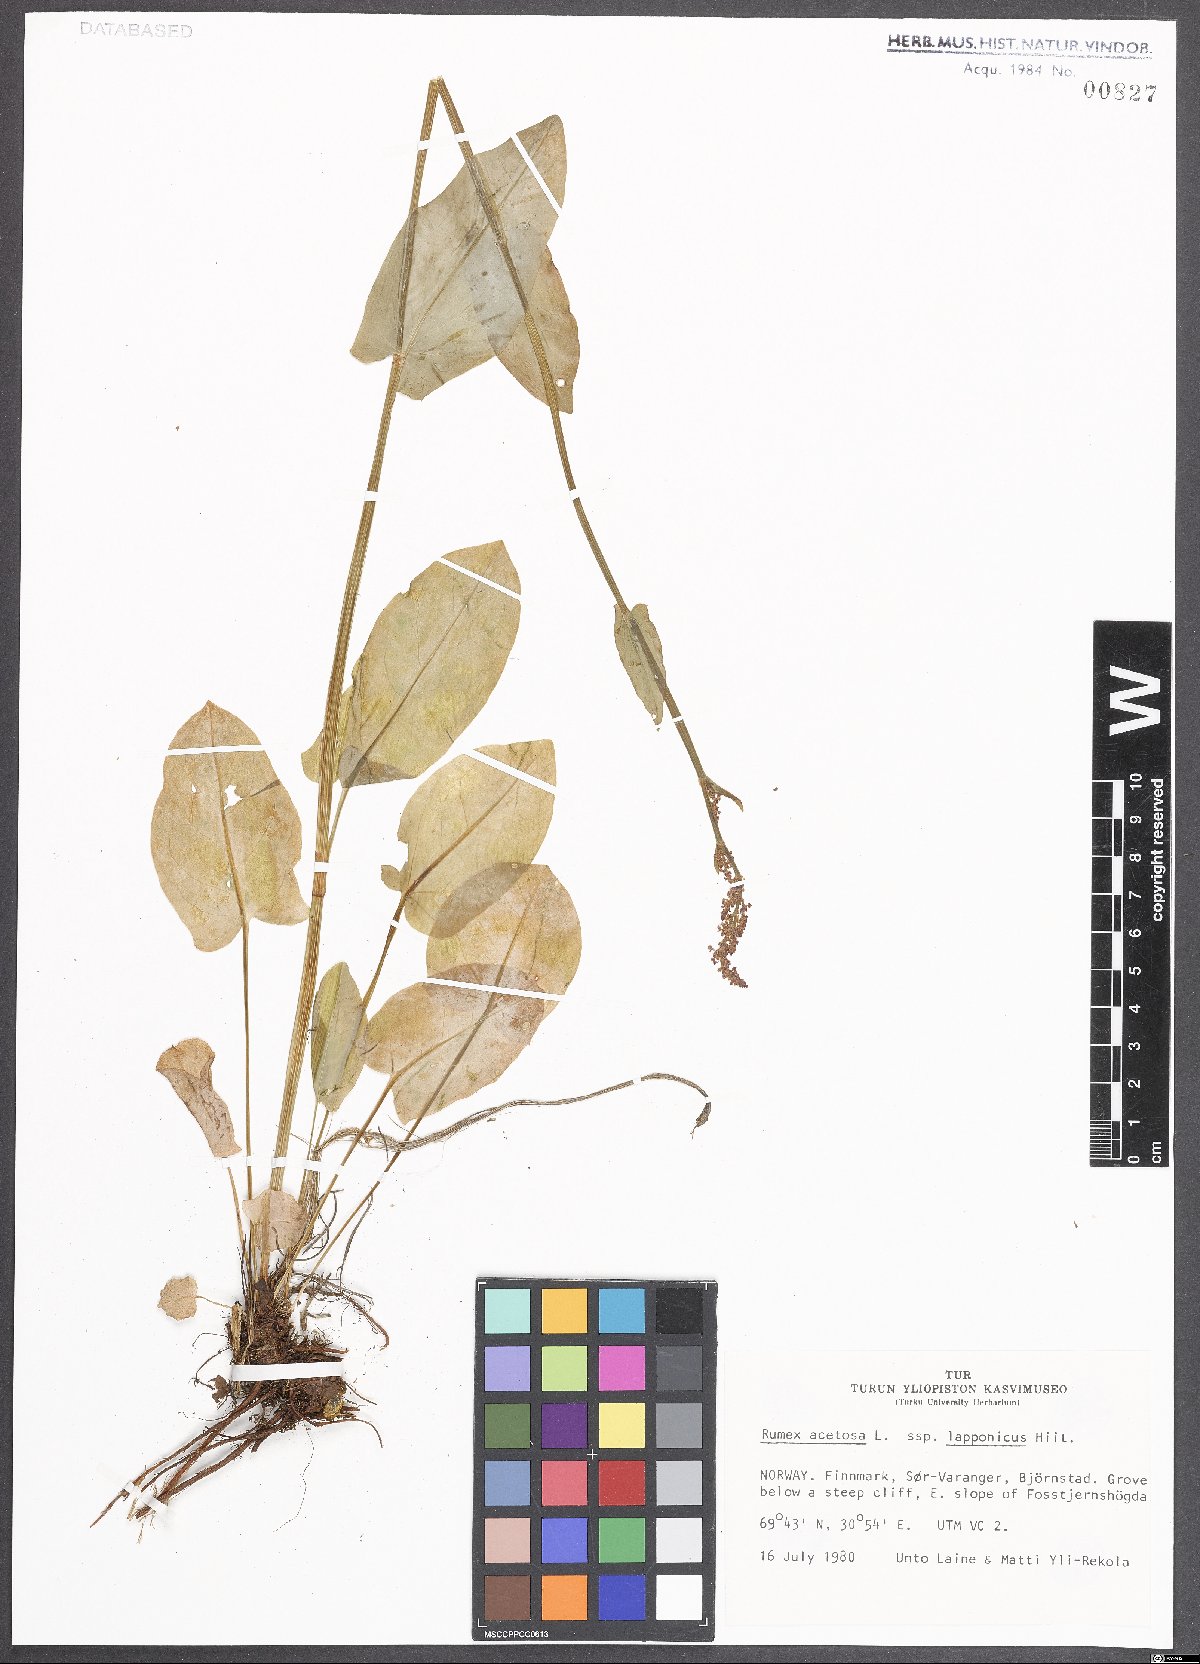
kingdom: Plantae
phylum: Tracheophyta
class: Magnoliopsida
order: Caryophyllales
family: Polygonaceae
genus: Rumex
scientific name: Rumex acetosa
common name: Garden sorrel
